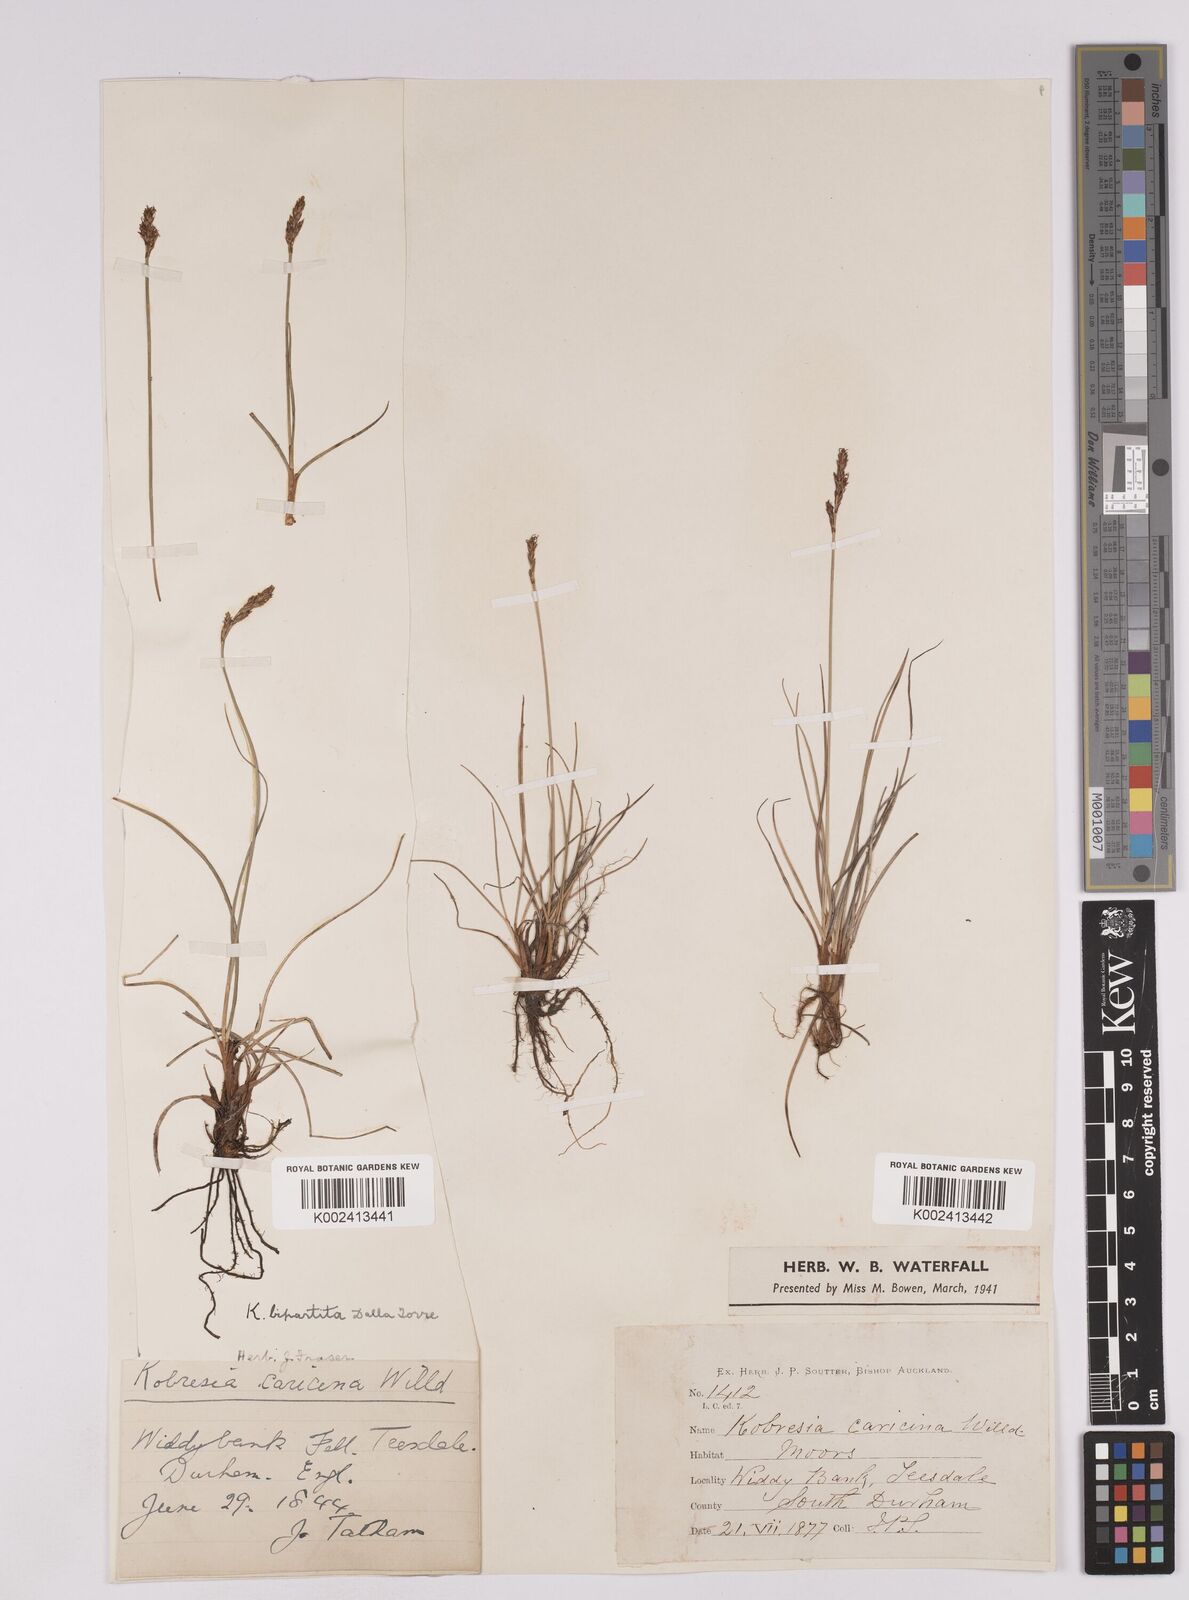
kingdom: Plantae
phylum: Tracheophyta
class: Liliopsida
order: Poales
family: Cyperaceae
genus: Carex
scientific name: Carex simpliciuscula
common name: Simple bog sedge
